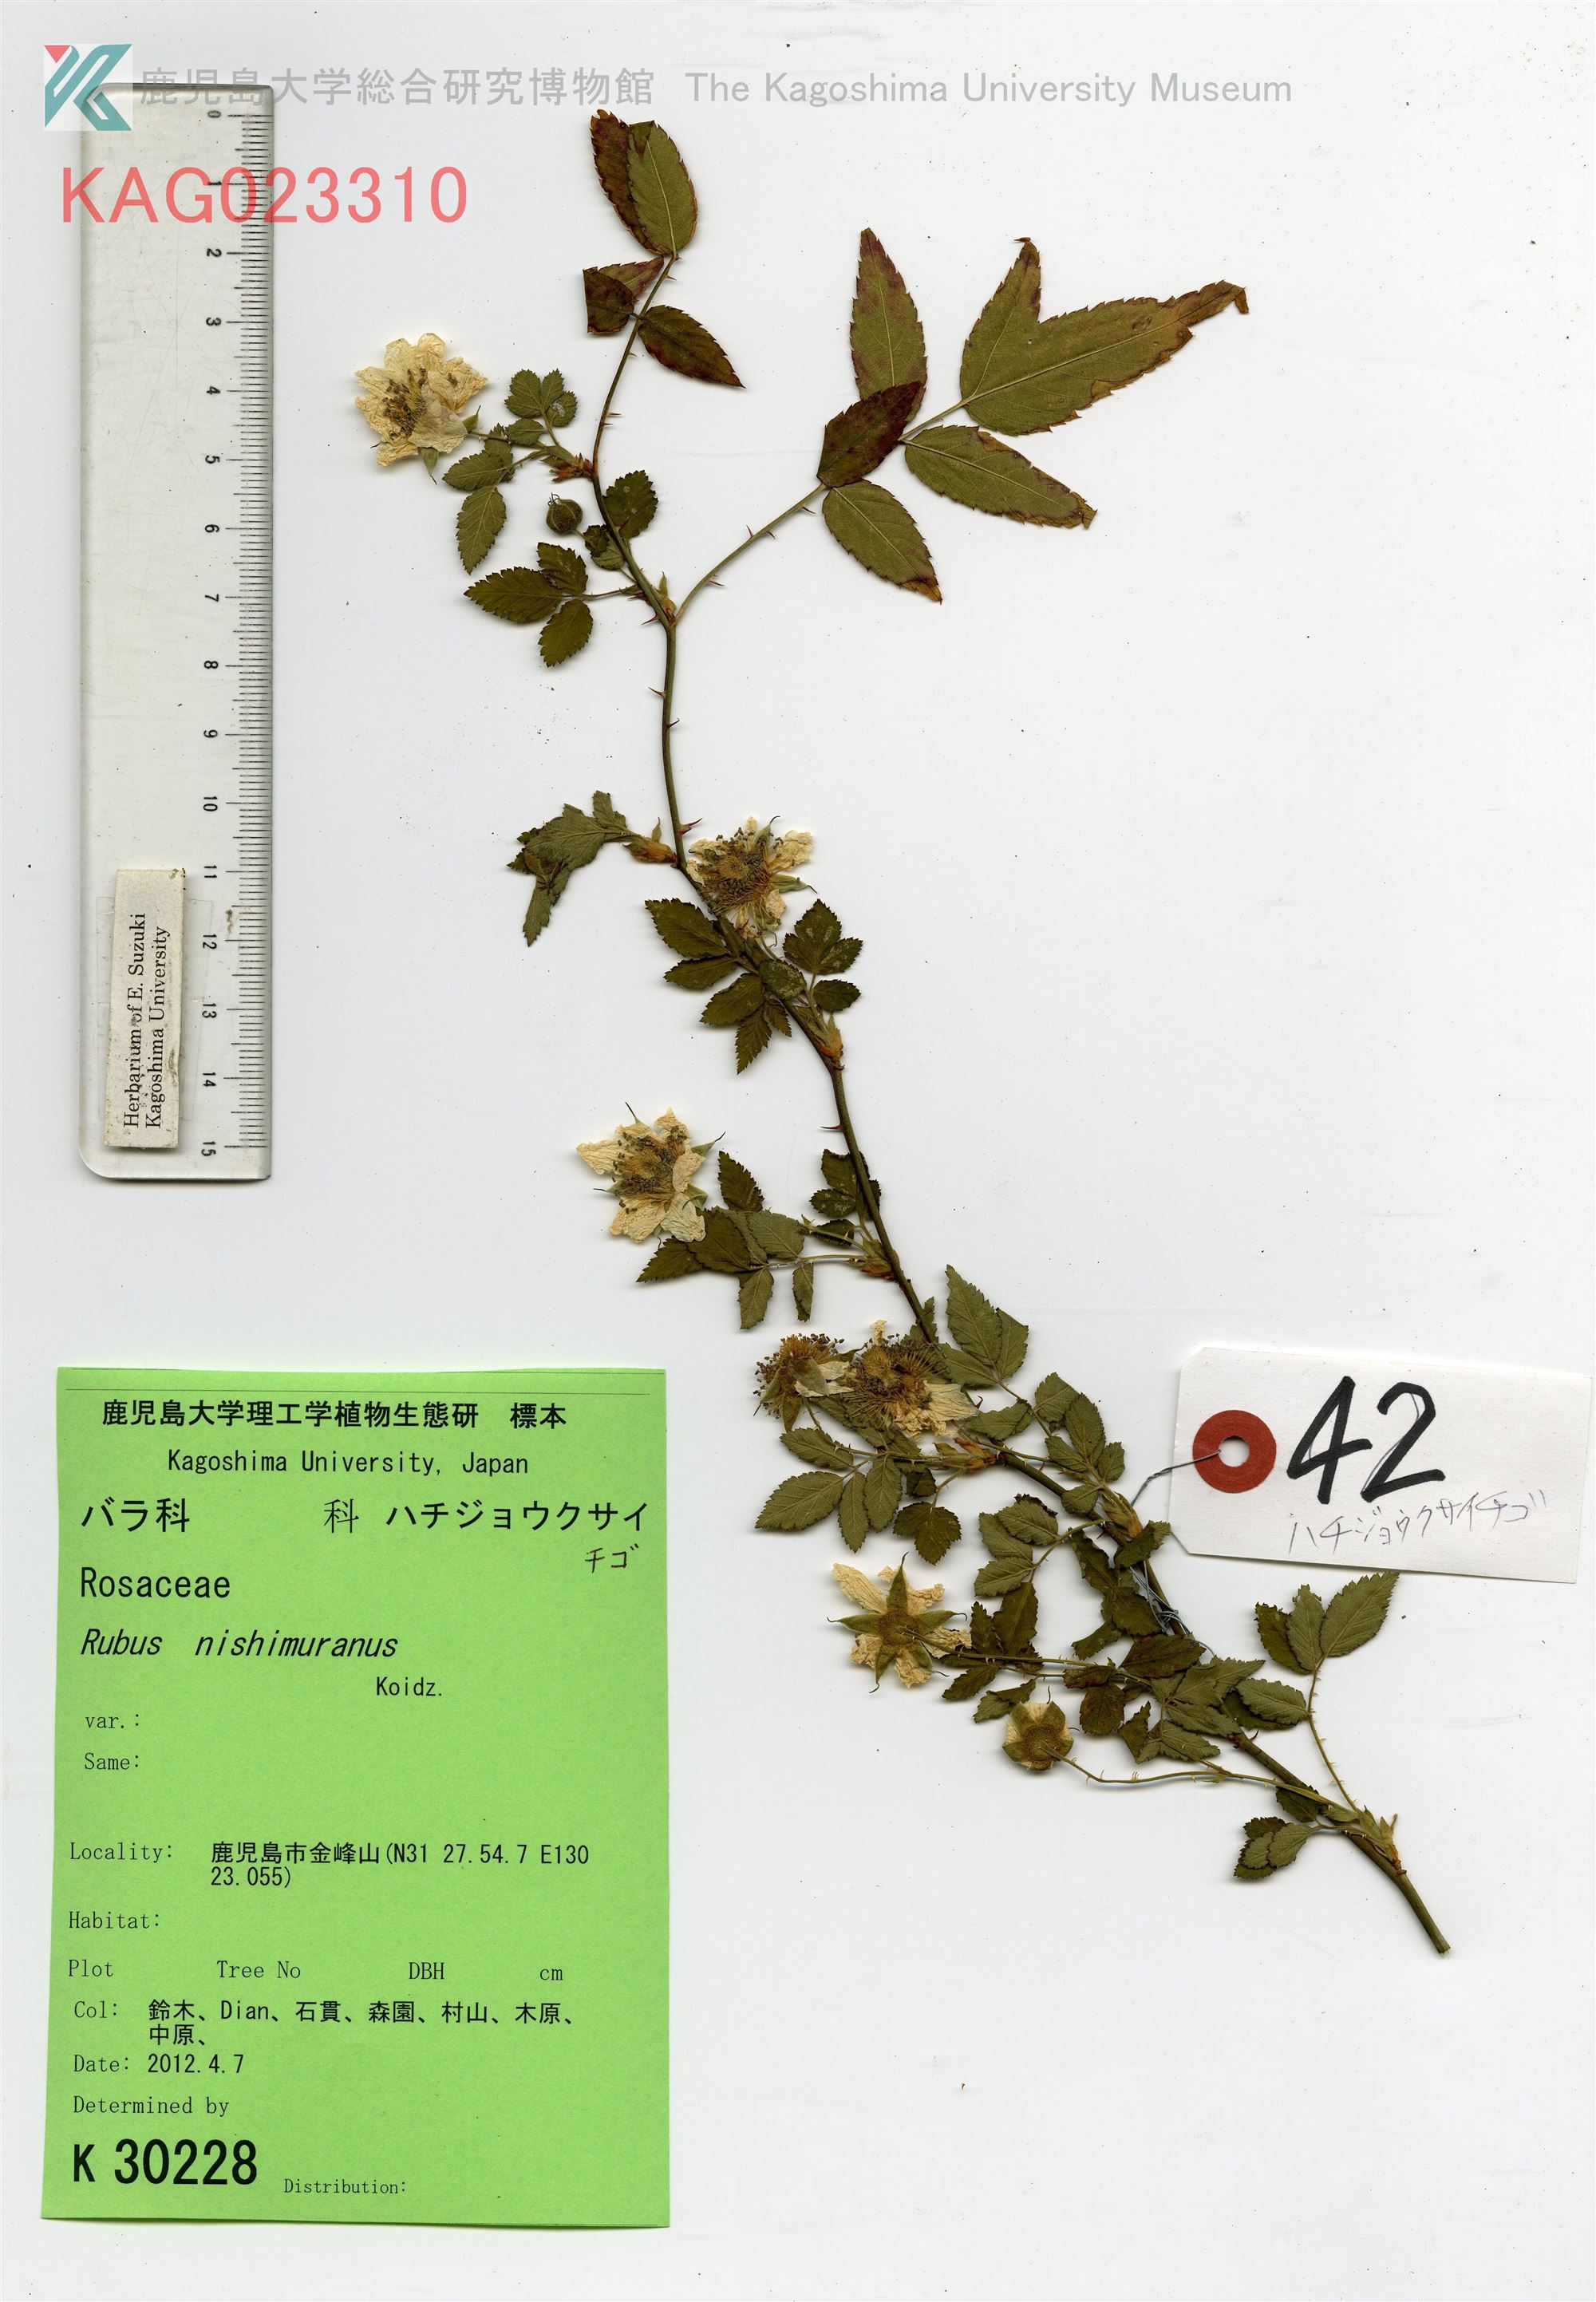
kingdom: Plantae
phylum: Tracheophyta
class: Magnoliopsida
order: Rosales
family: Rosaceae
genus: Rubus
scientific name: Rubus hirsutus
